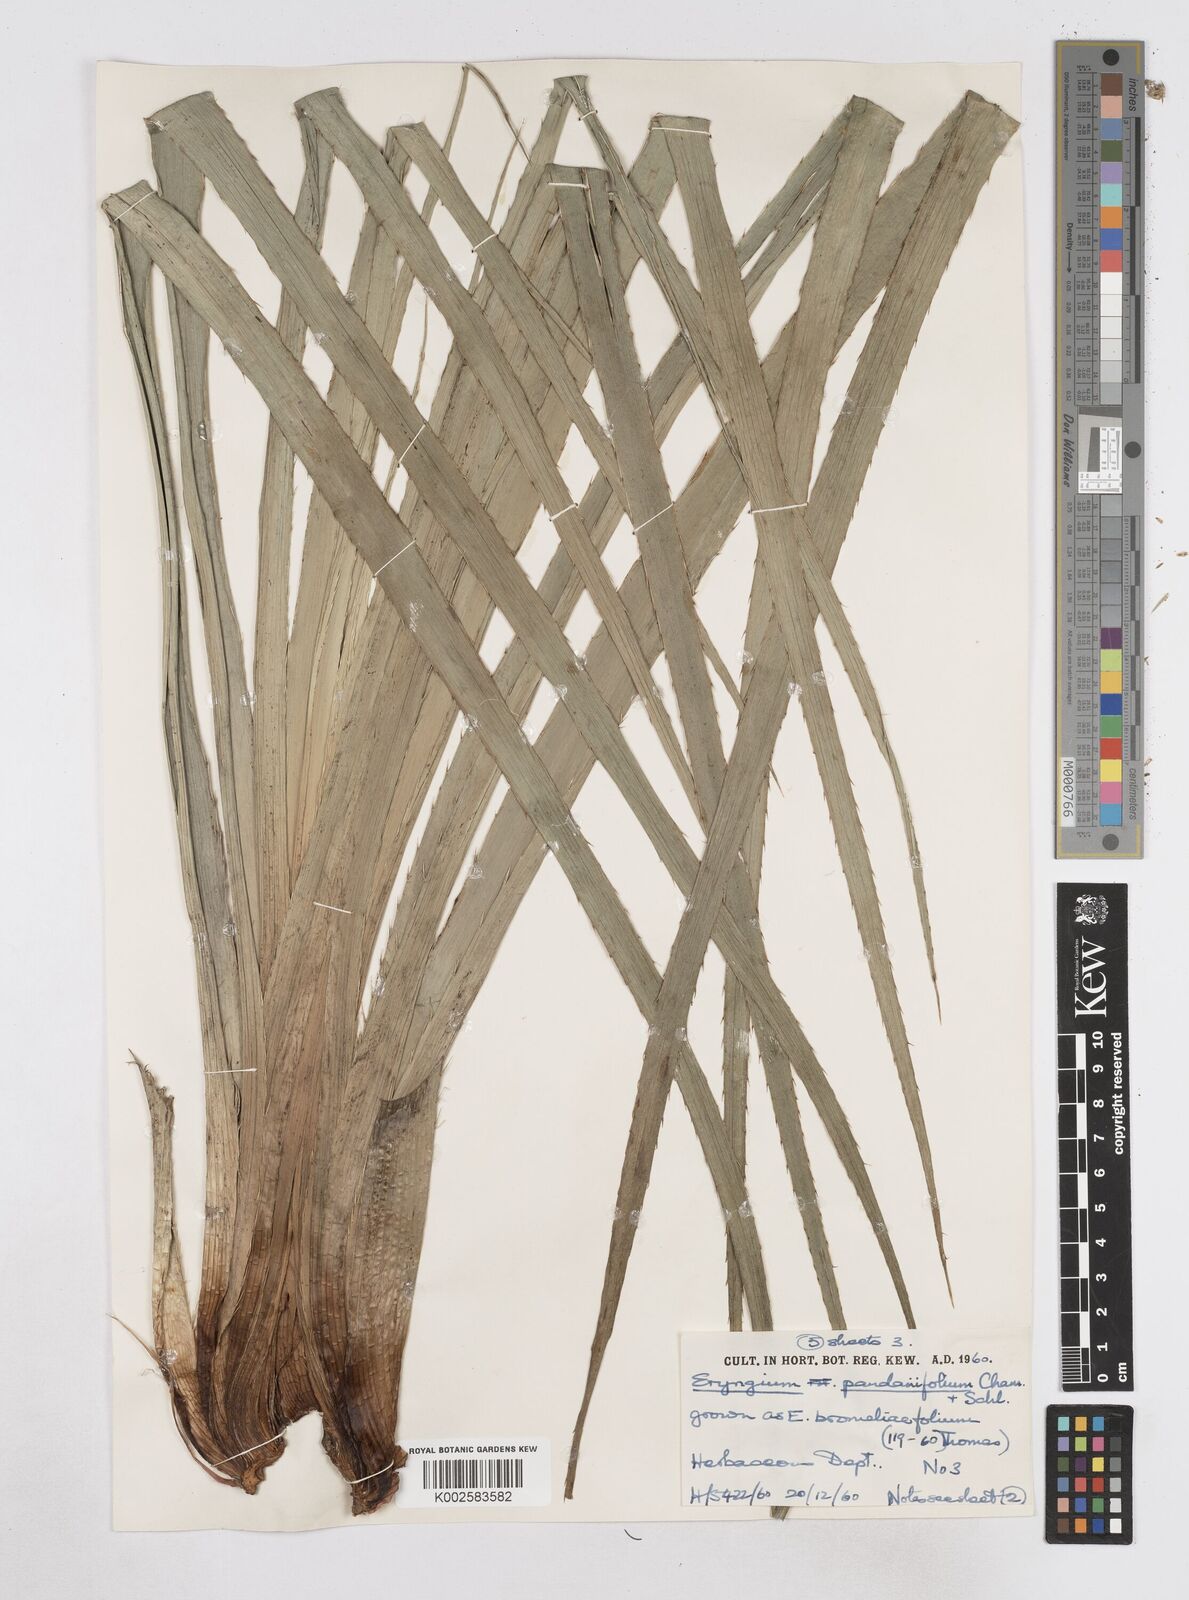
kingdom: Plantae
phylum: Tracheophyta
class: Magnoliopsida
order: Apiales
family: Apiaceae
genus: Eryngium
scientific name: Eryngium pandanifolium
